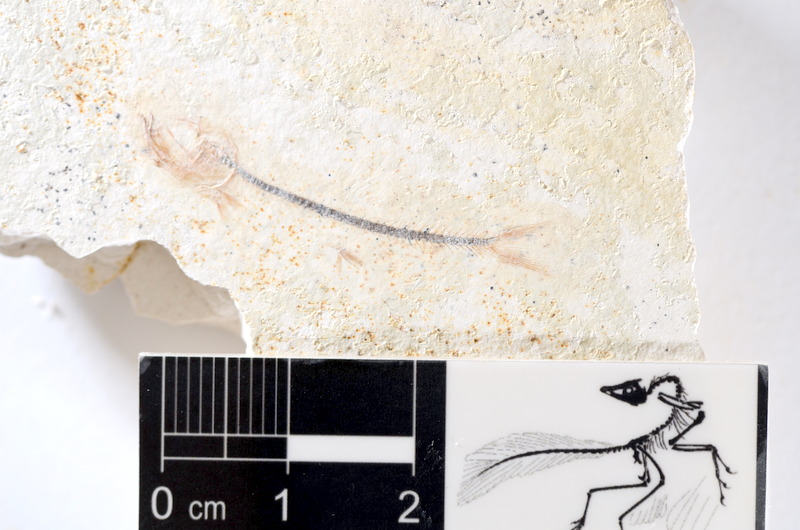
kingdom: Animalia
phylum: Chordata
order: Salmoniformes
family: Orthogonikleithridae
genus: Orthogonikleithrus
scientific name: Orthogonikleithrus hoelli
